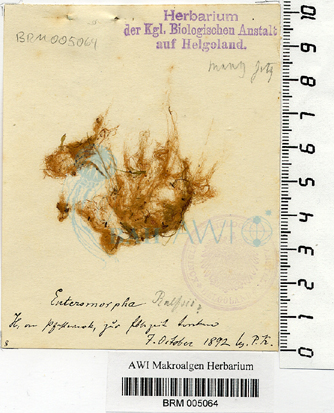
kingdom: Plantae
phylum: Chlorophyta
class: Ulvophyceae
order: Ulvales
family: Kornmanniaceae
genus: Blidingia
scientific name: Blidingia marginata
